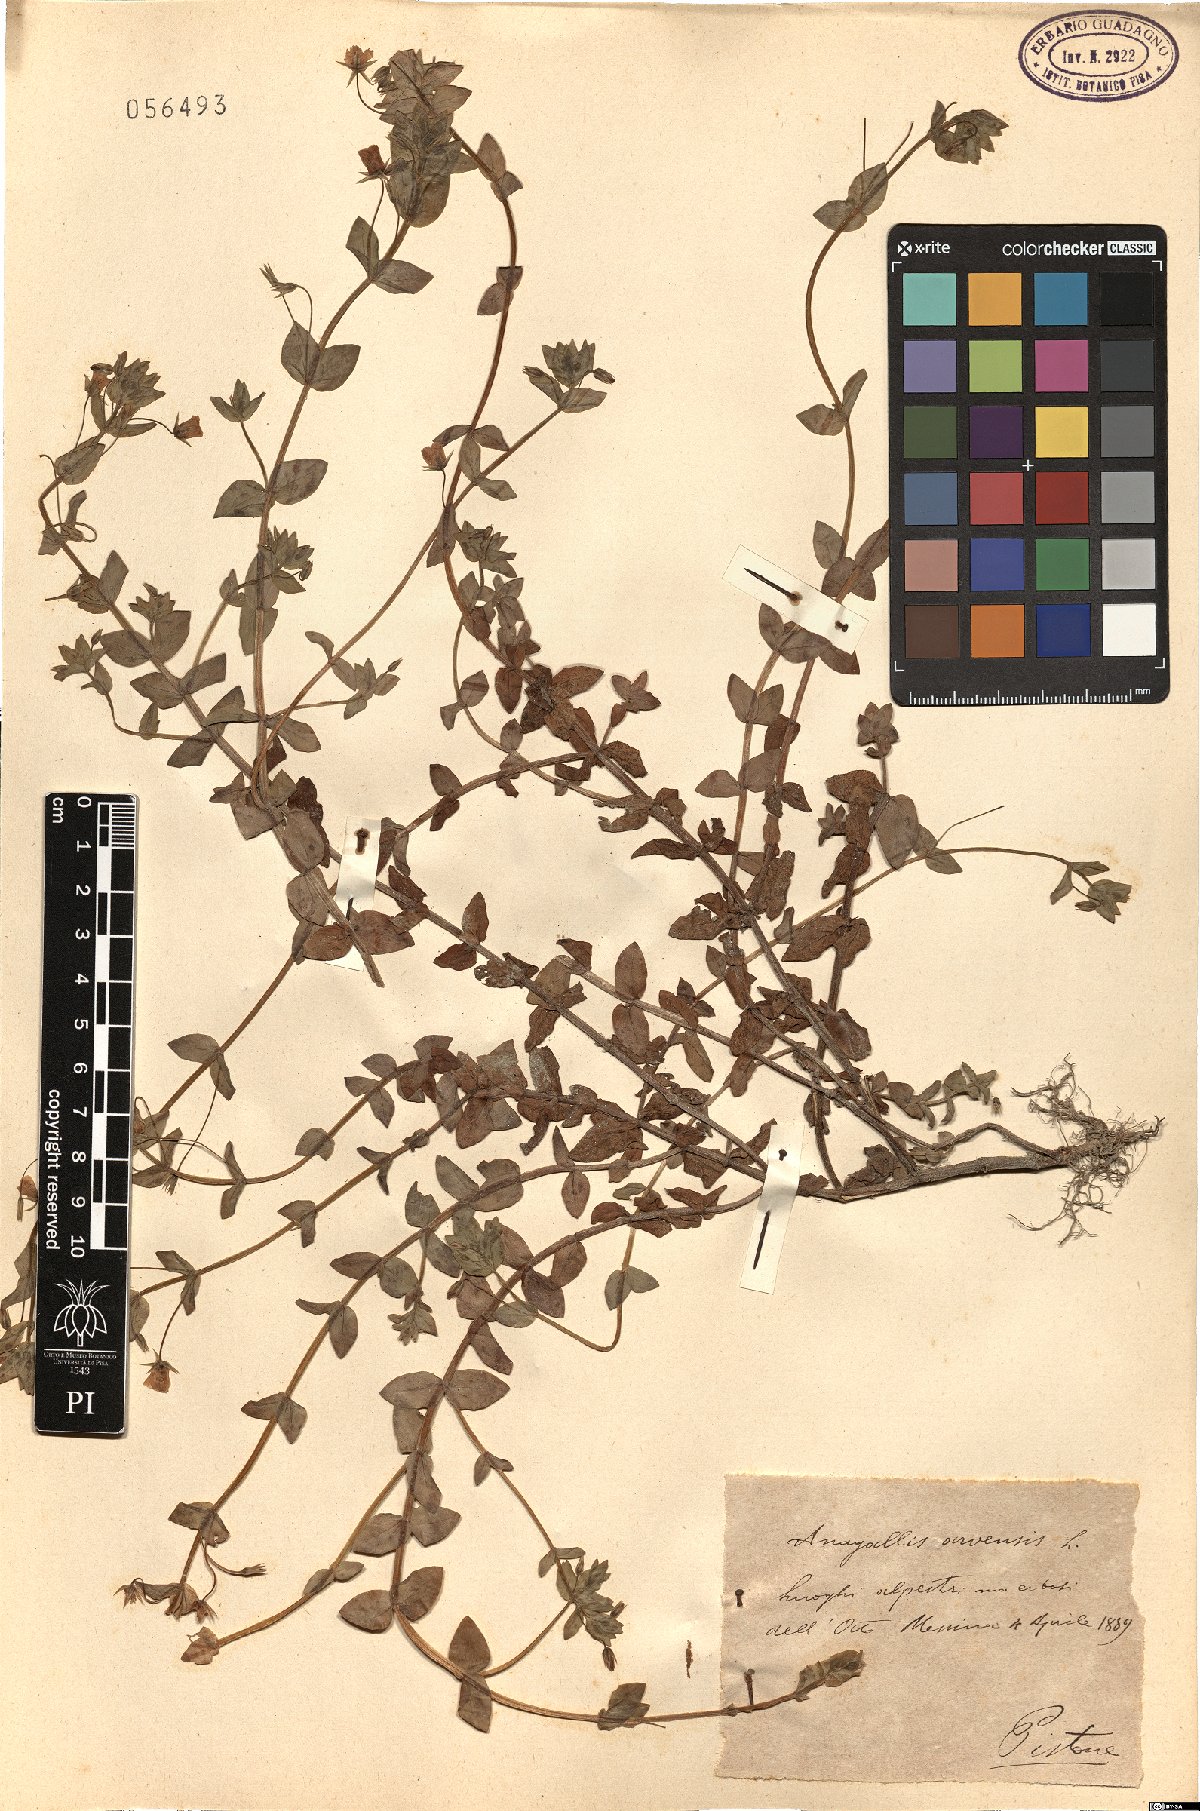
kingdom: Plantae
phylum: Tracheophyta
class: Magnoliopsida
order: Ericales
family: Primulaceae
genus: Lysimachia
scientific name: Lysimachia arvensis
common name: Scarlet pimpernel
